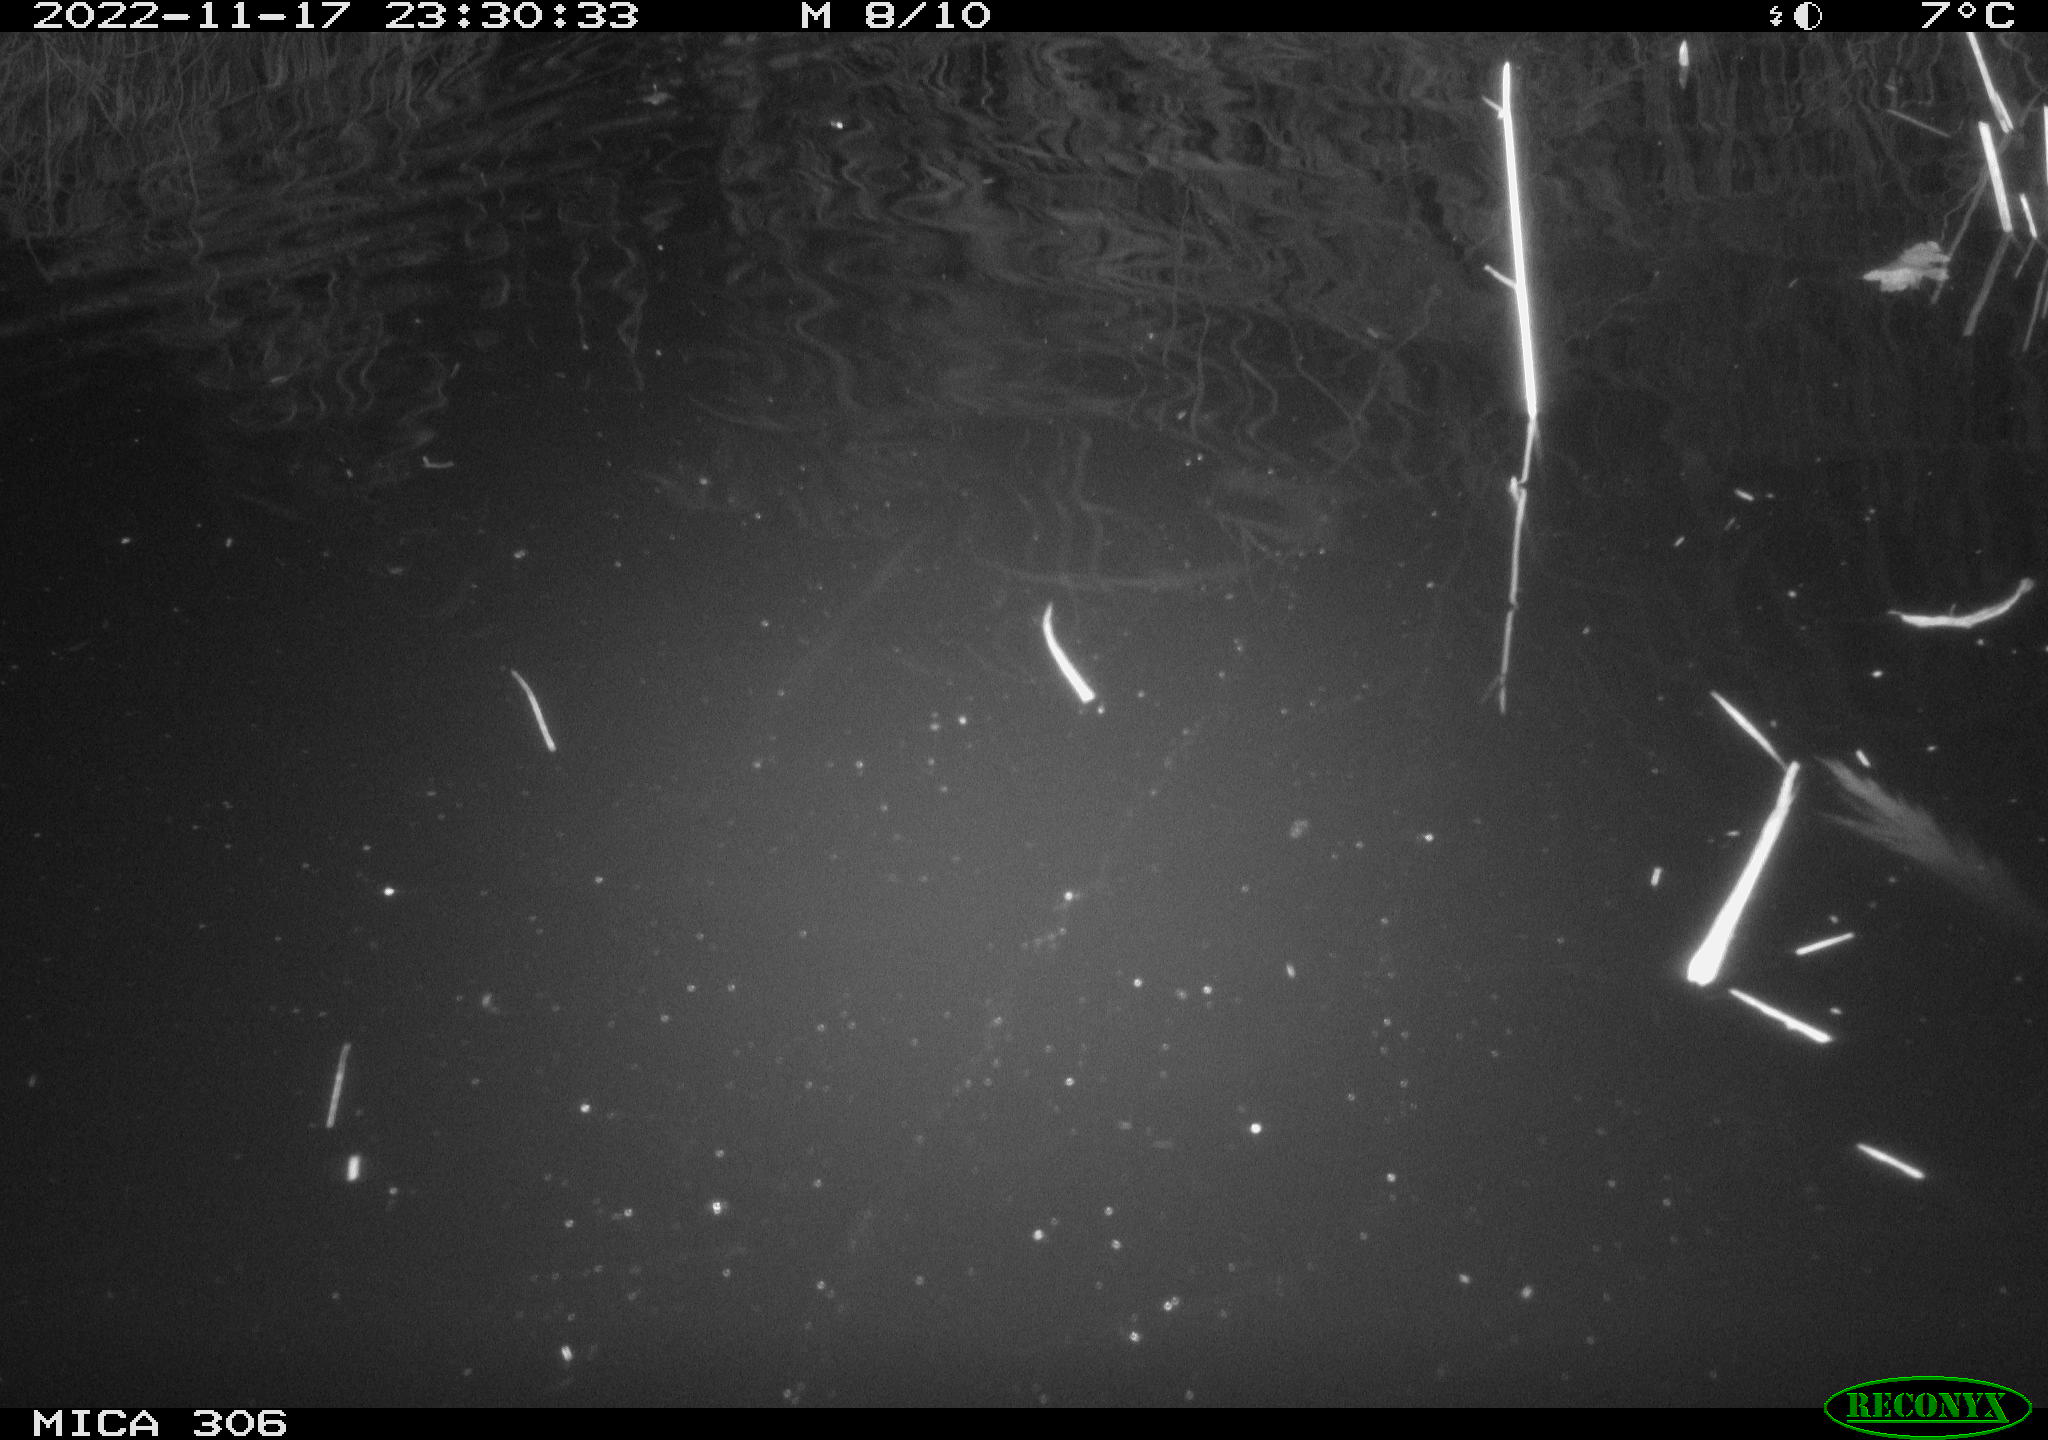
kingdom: Animalia
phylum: Chordata
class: Mammalia
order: Rodentia
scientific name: Rodentia
